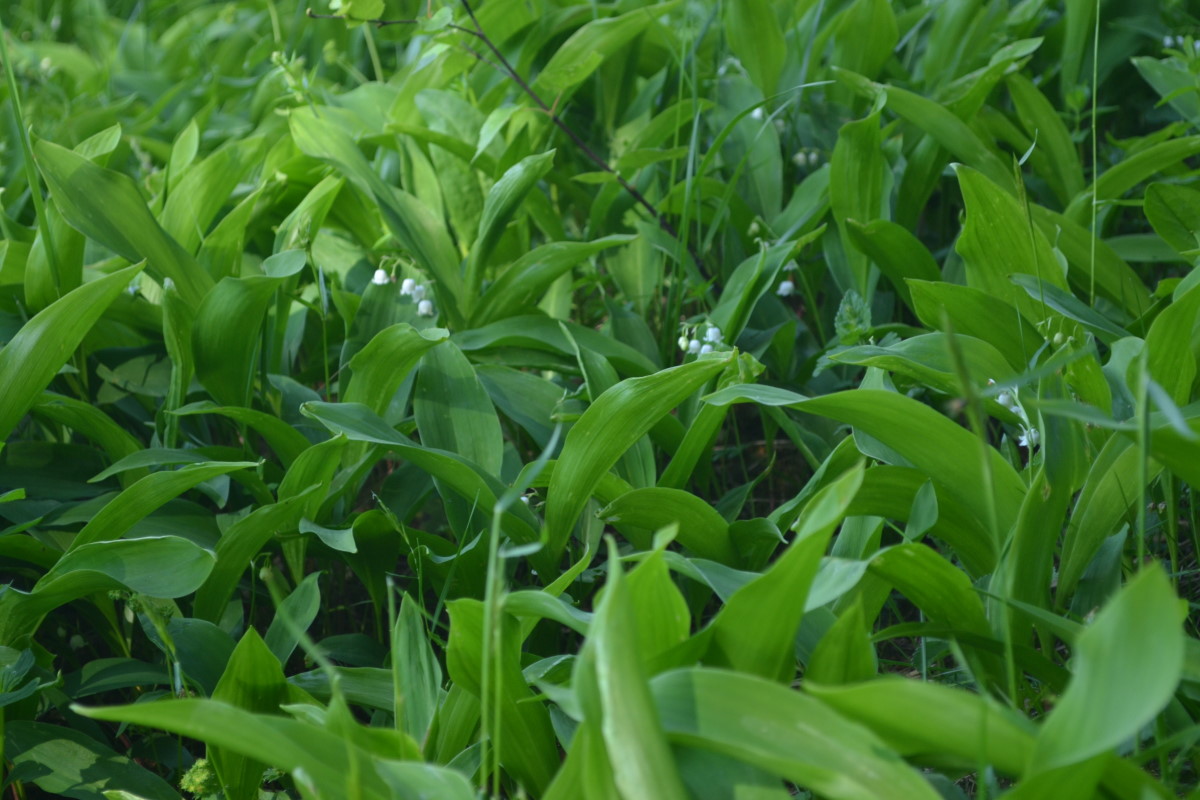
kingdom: Plantae
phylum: Tracheophyta
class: Liliopsida
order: Asparagales
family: Asparagaceae
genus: Convallaria
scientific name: Convallaria majalis
